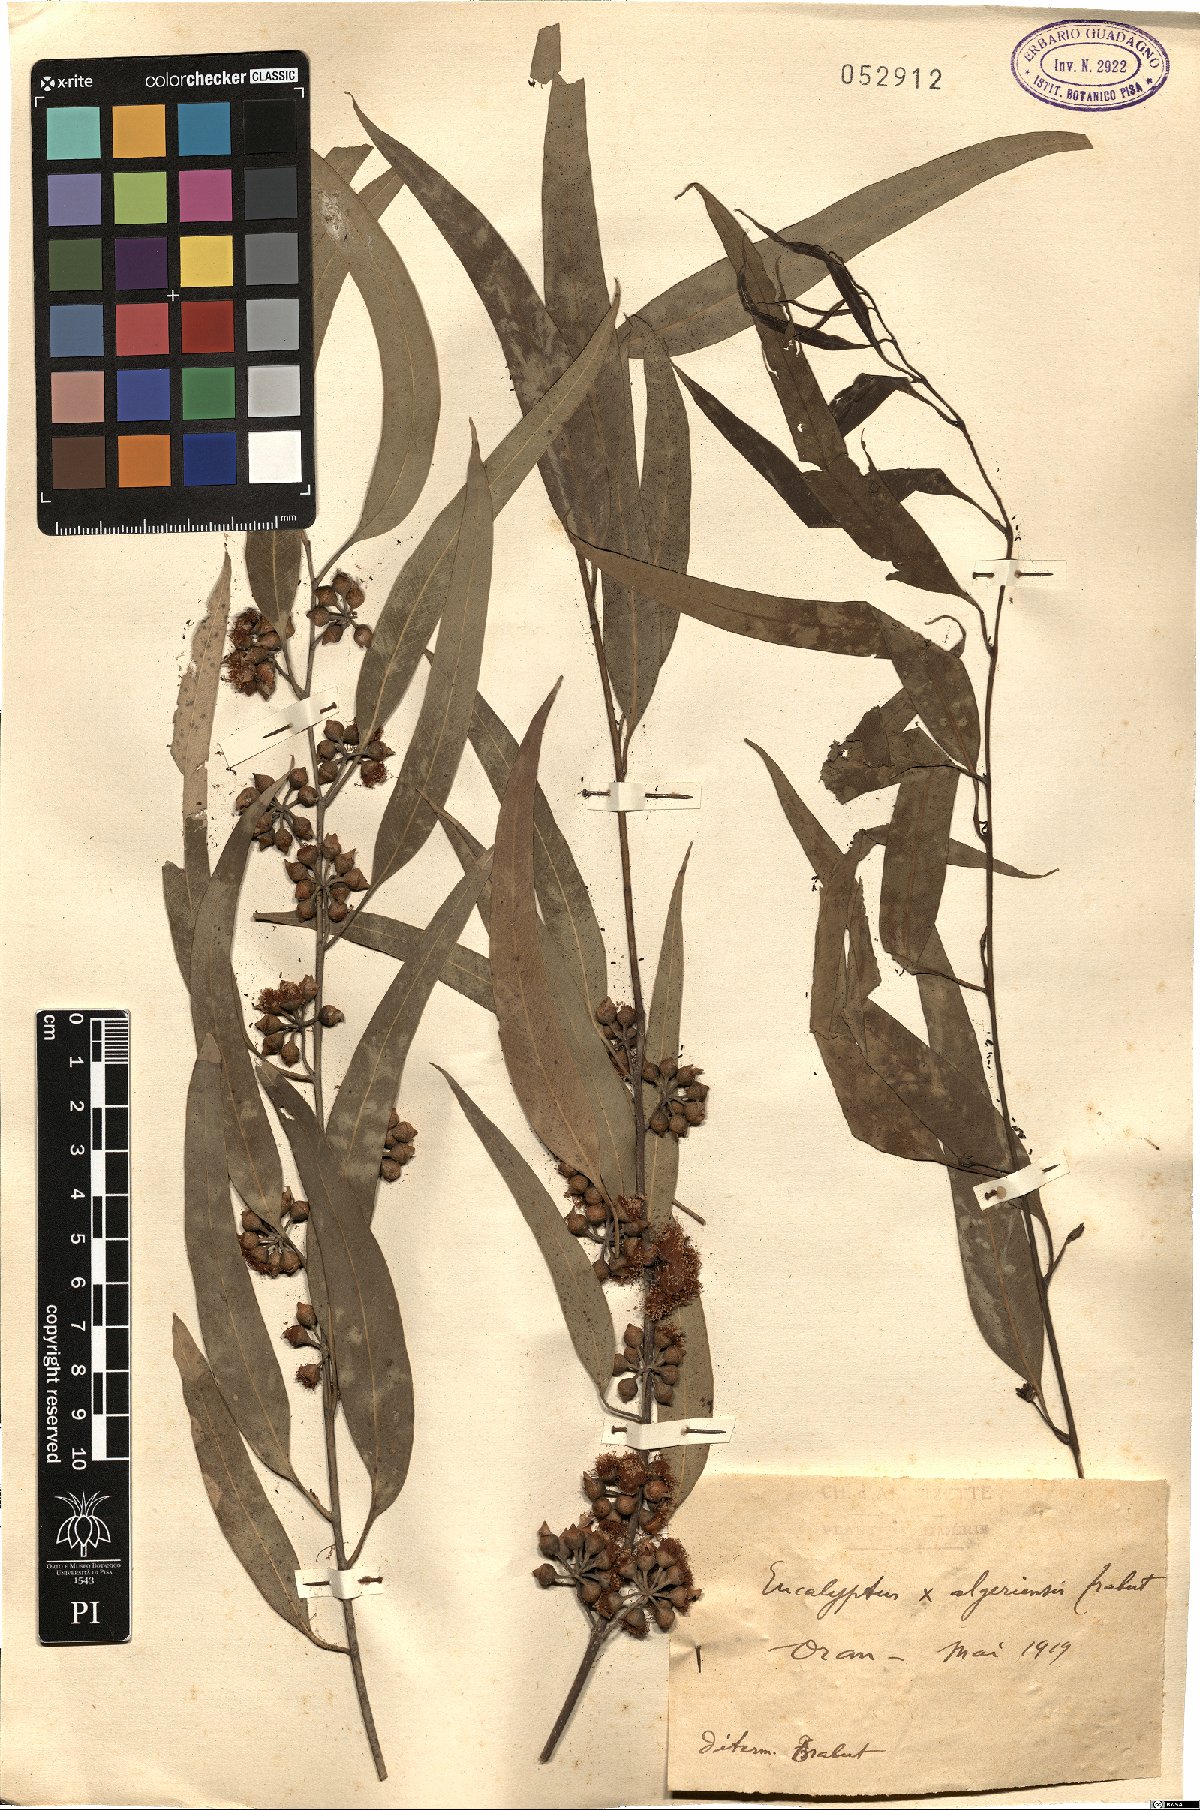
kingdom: Plantae
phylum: Tracheophyta
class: Magnoliopsida
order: Myrtales
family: Myrtaceae
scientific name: Myrtaceae
